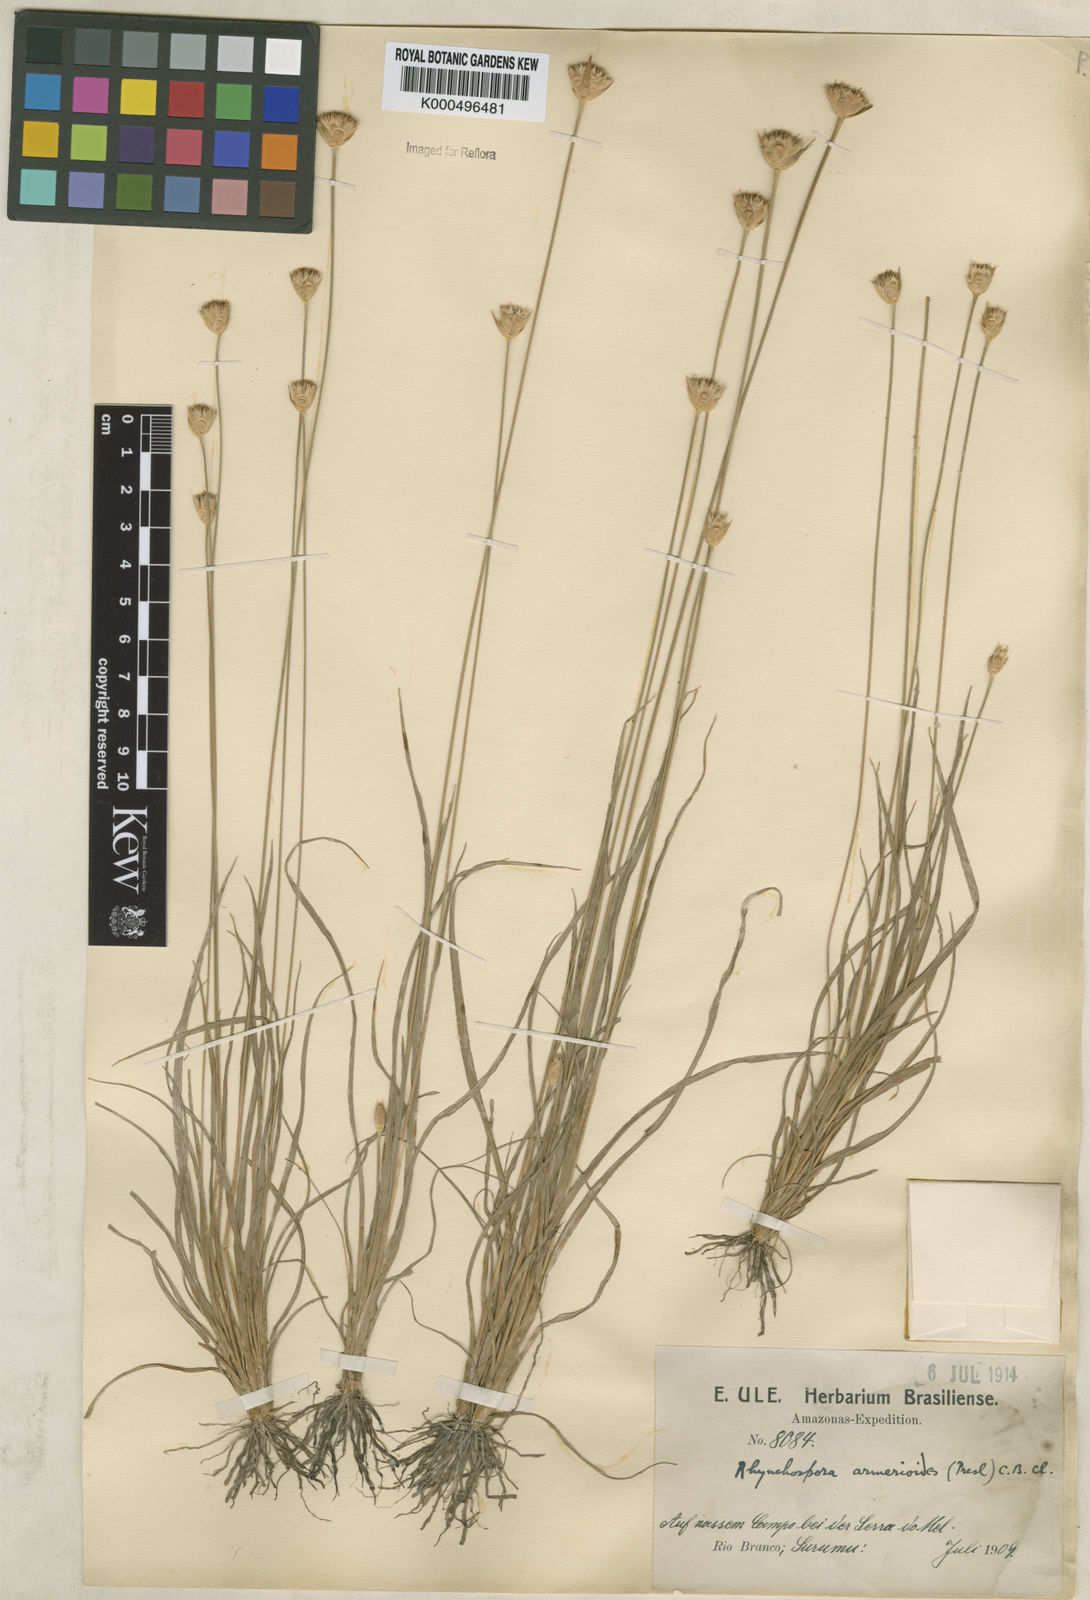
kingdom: Plantae
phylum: Tracheophyta
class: Liliopsida
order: Poales
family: Cyperaceae
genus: Rhynchospora
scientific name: Rhynchospora armerioides
